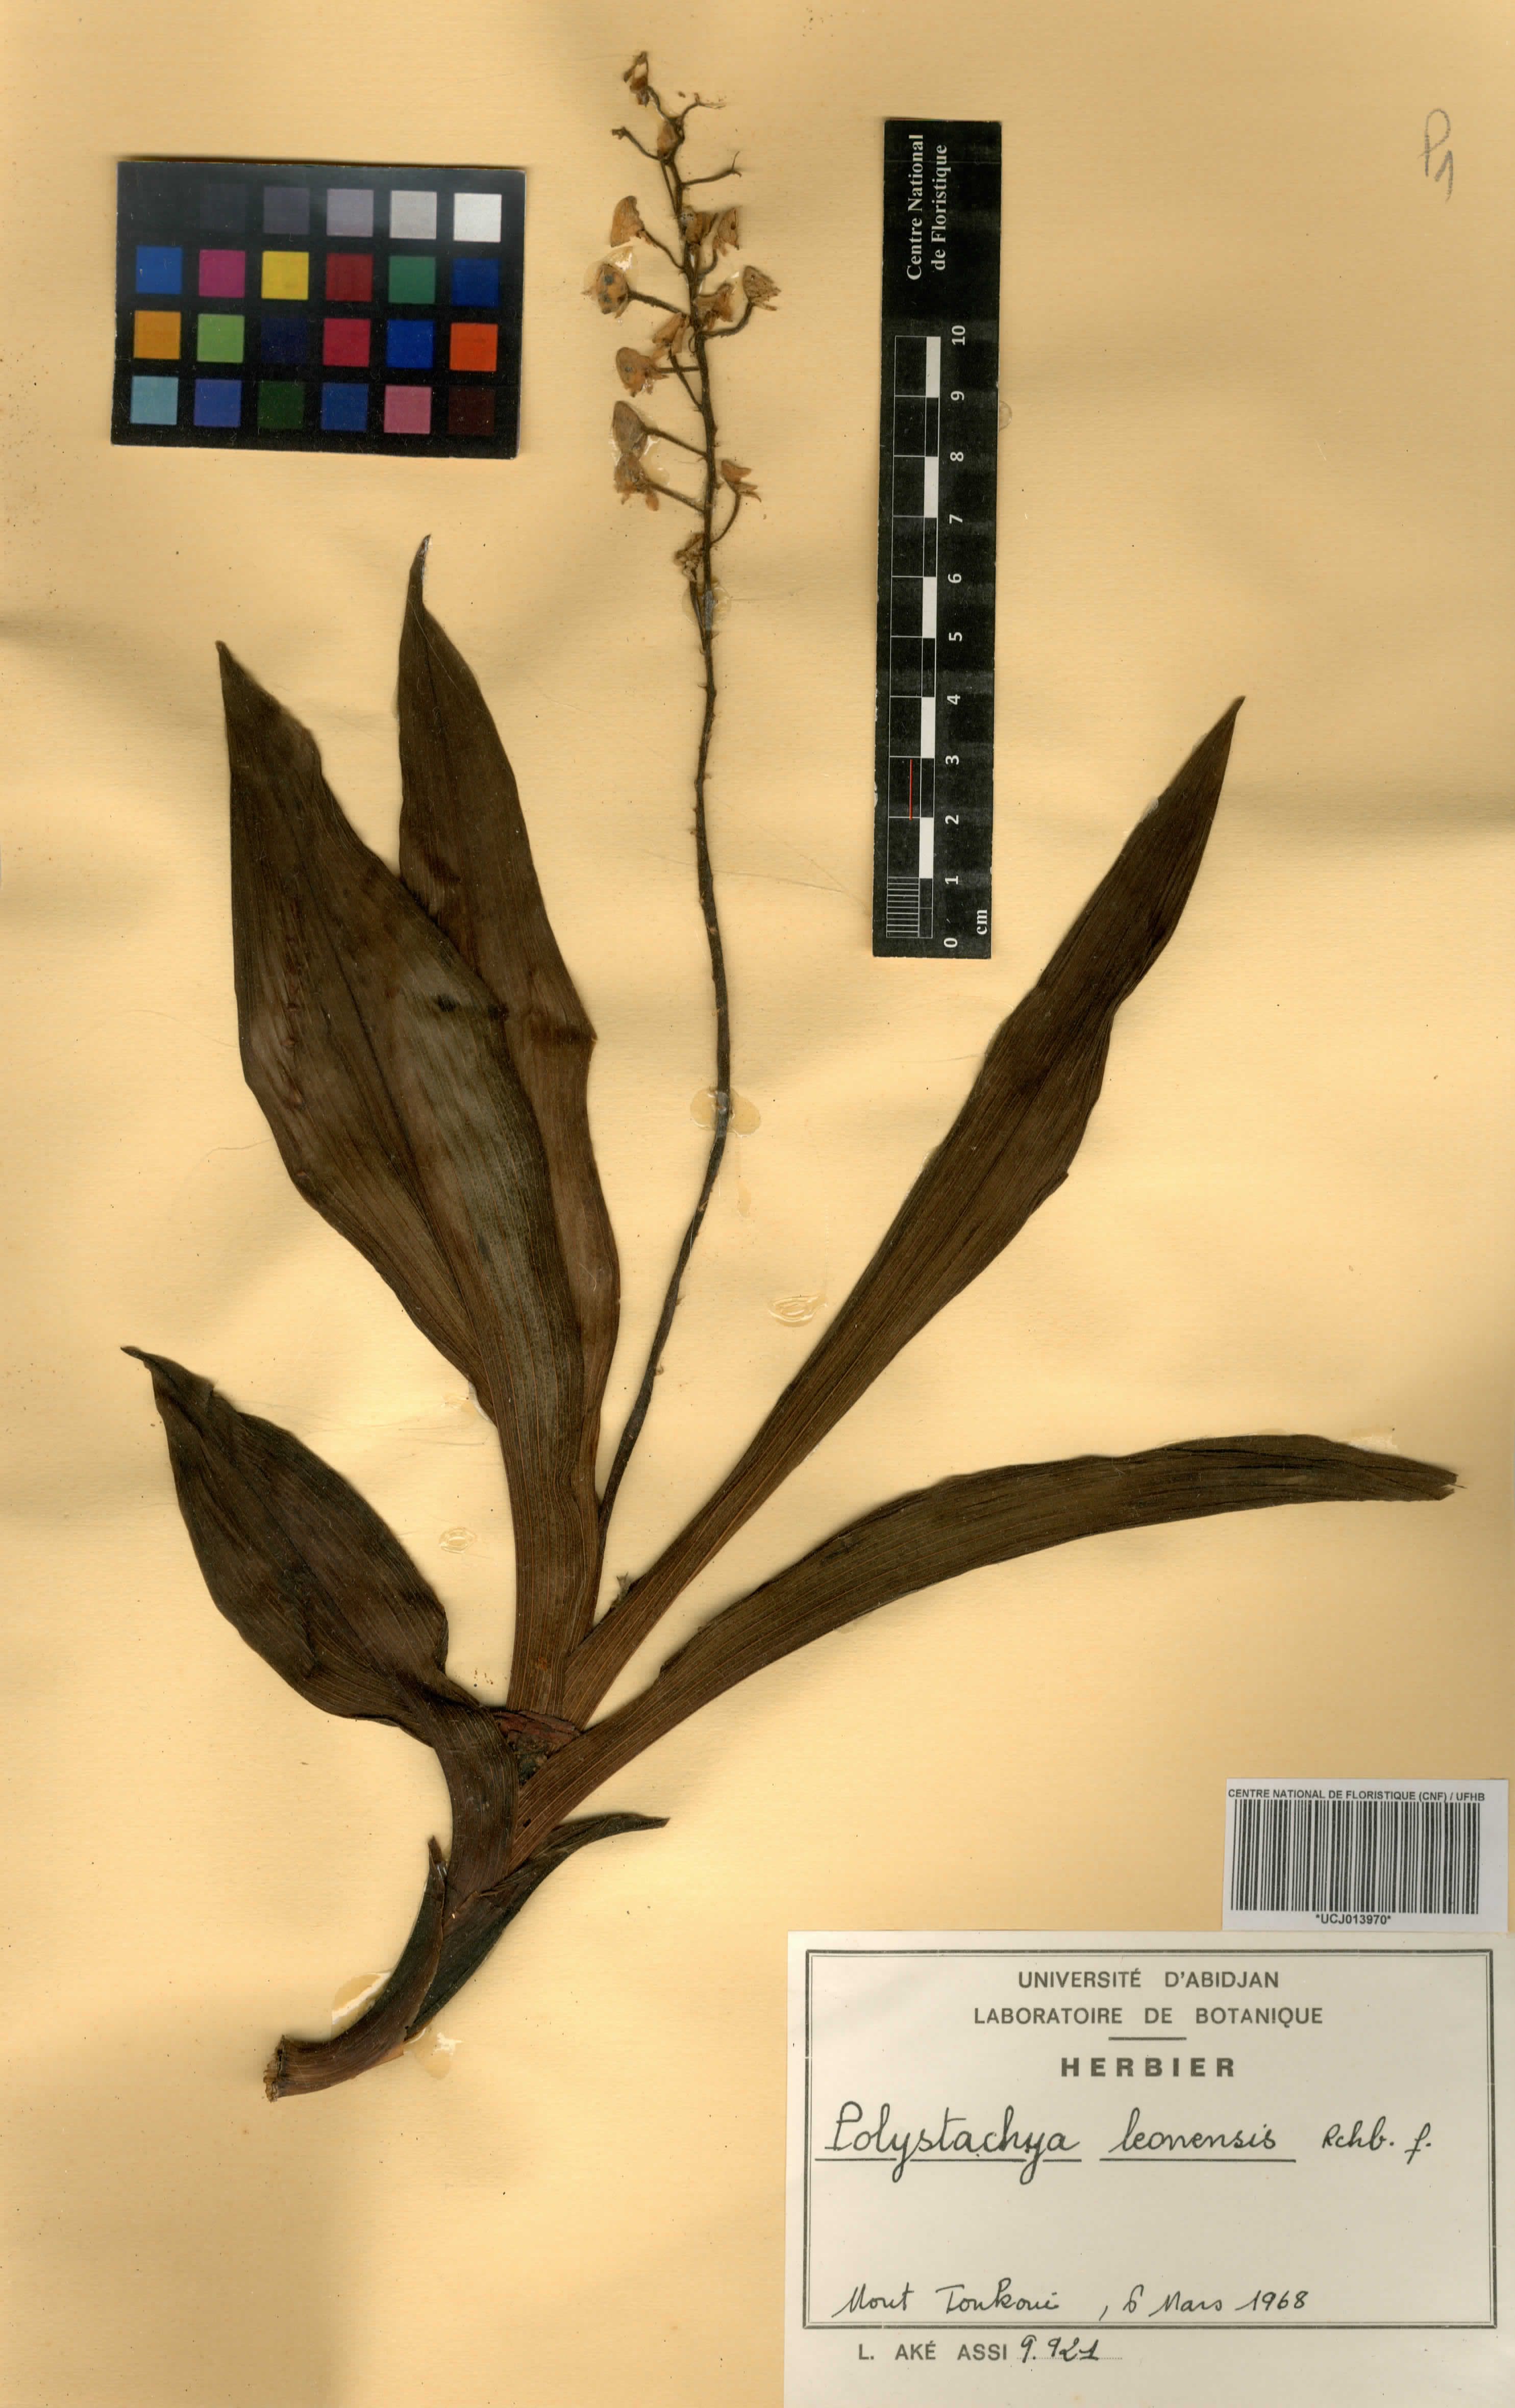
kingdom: Plantae
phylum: Tracheophyta
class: Liliopsida
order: Asparagales
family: Orchidaceae
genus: Polystachya
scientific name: Polystachya leonensis
